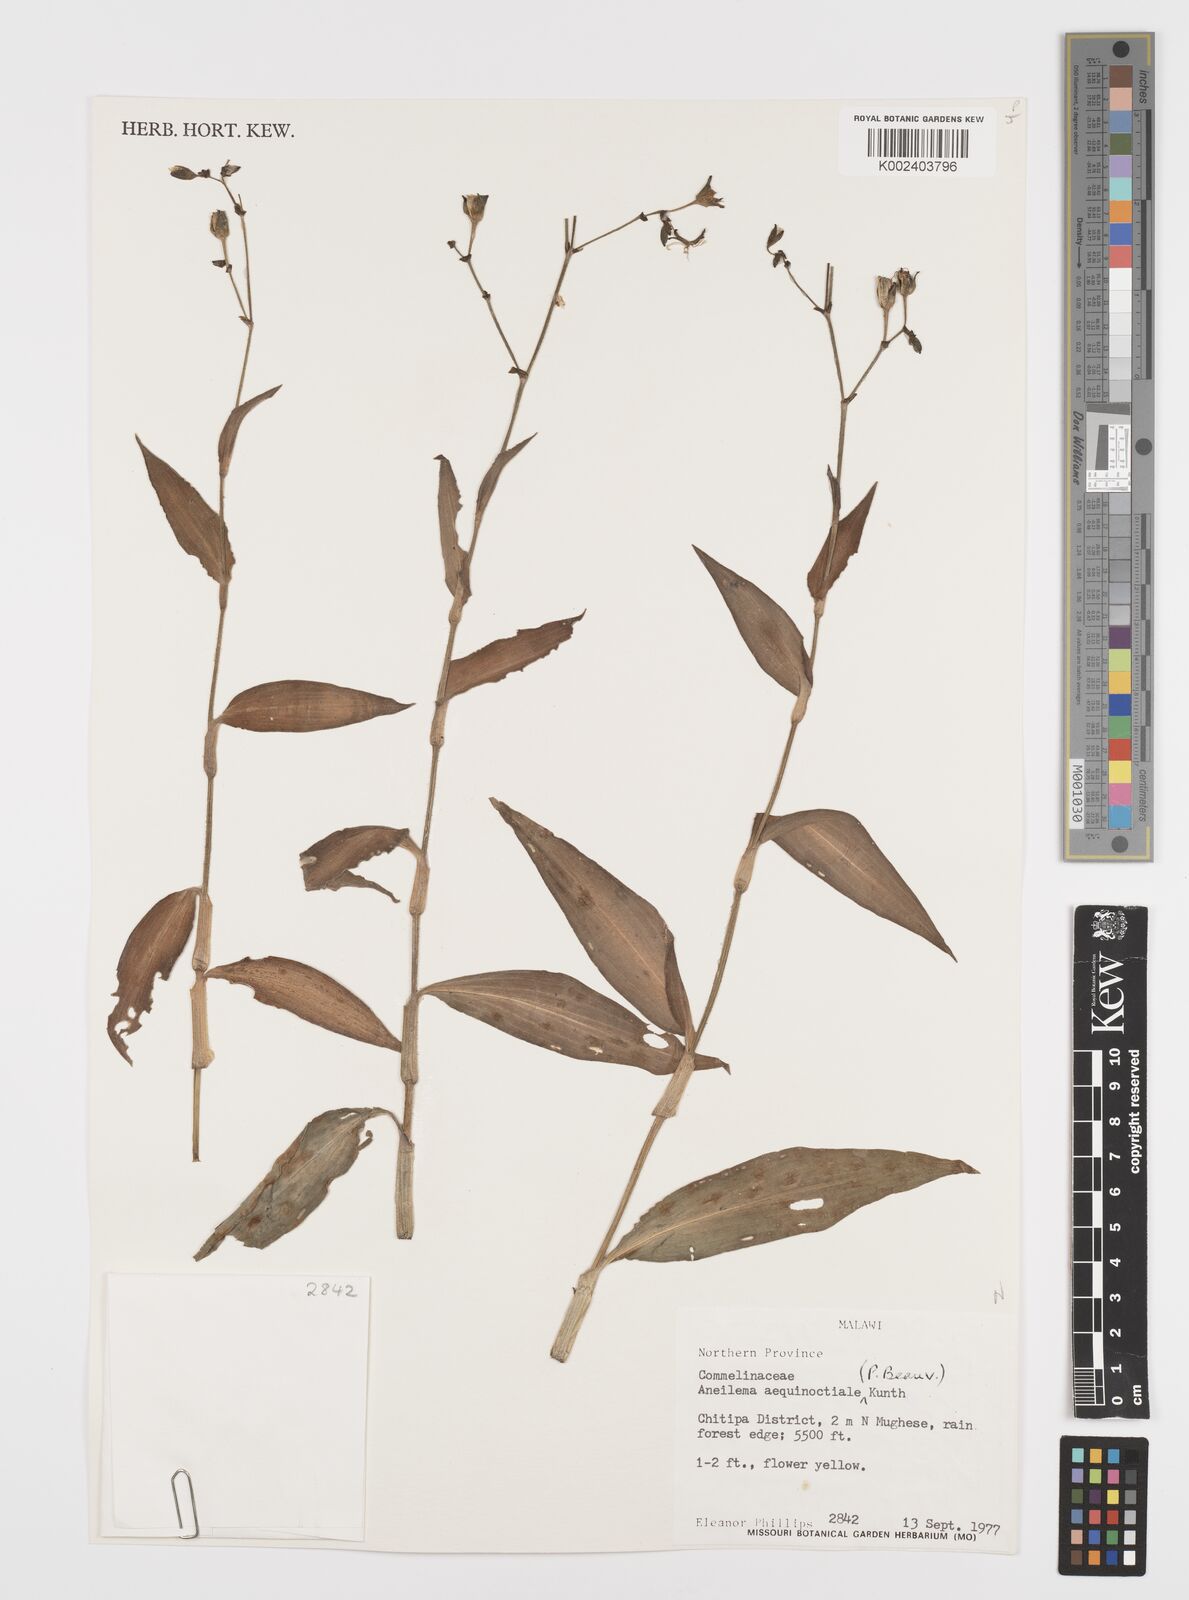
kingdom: Plantae
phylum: Tracheophyta
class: Liliopsida
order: Commelinales
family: Commelinaceae
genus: Aneilema
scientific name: Aneilema aequinoctiale
